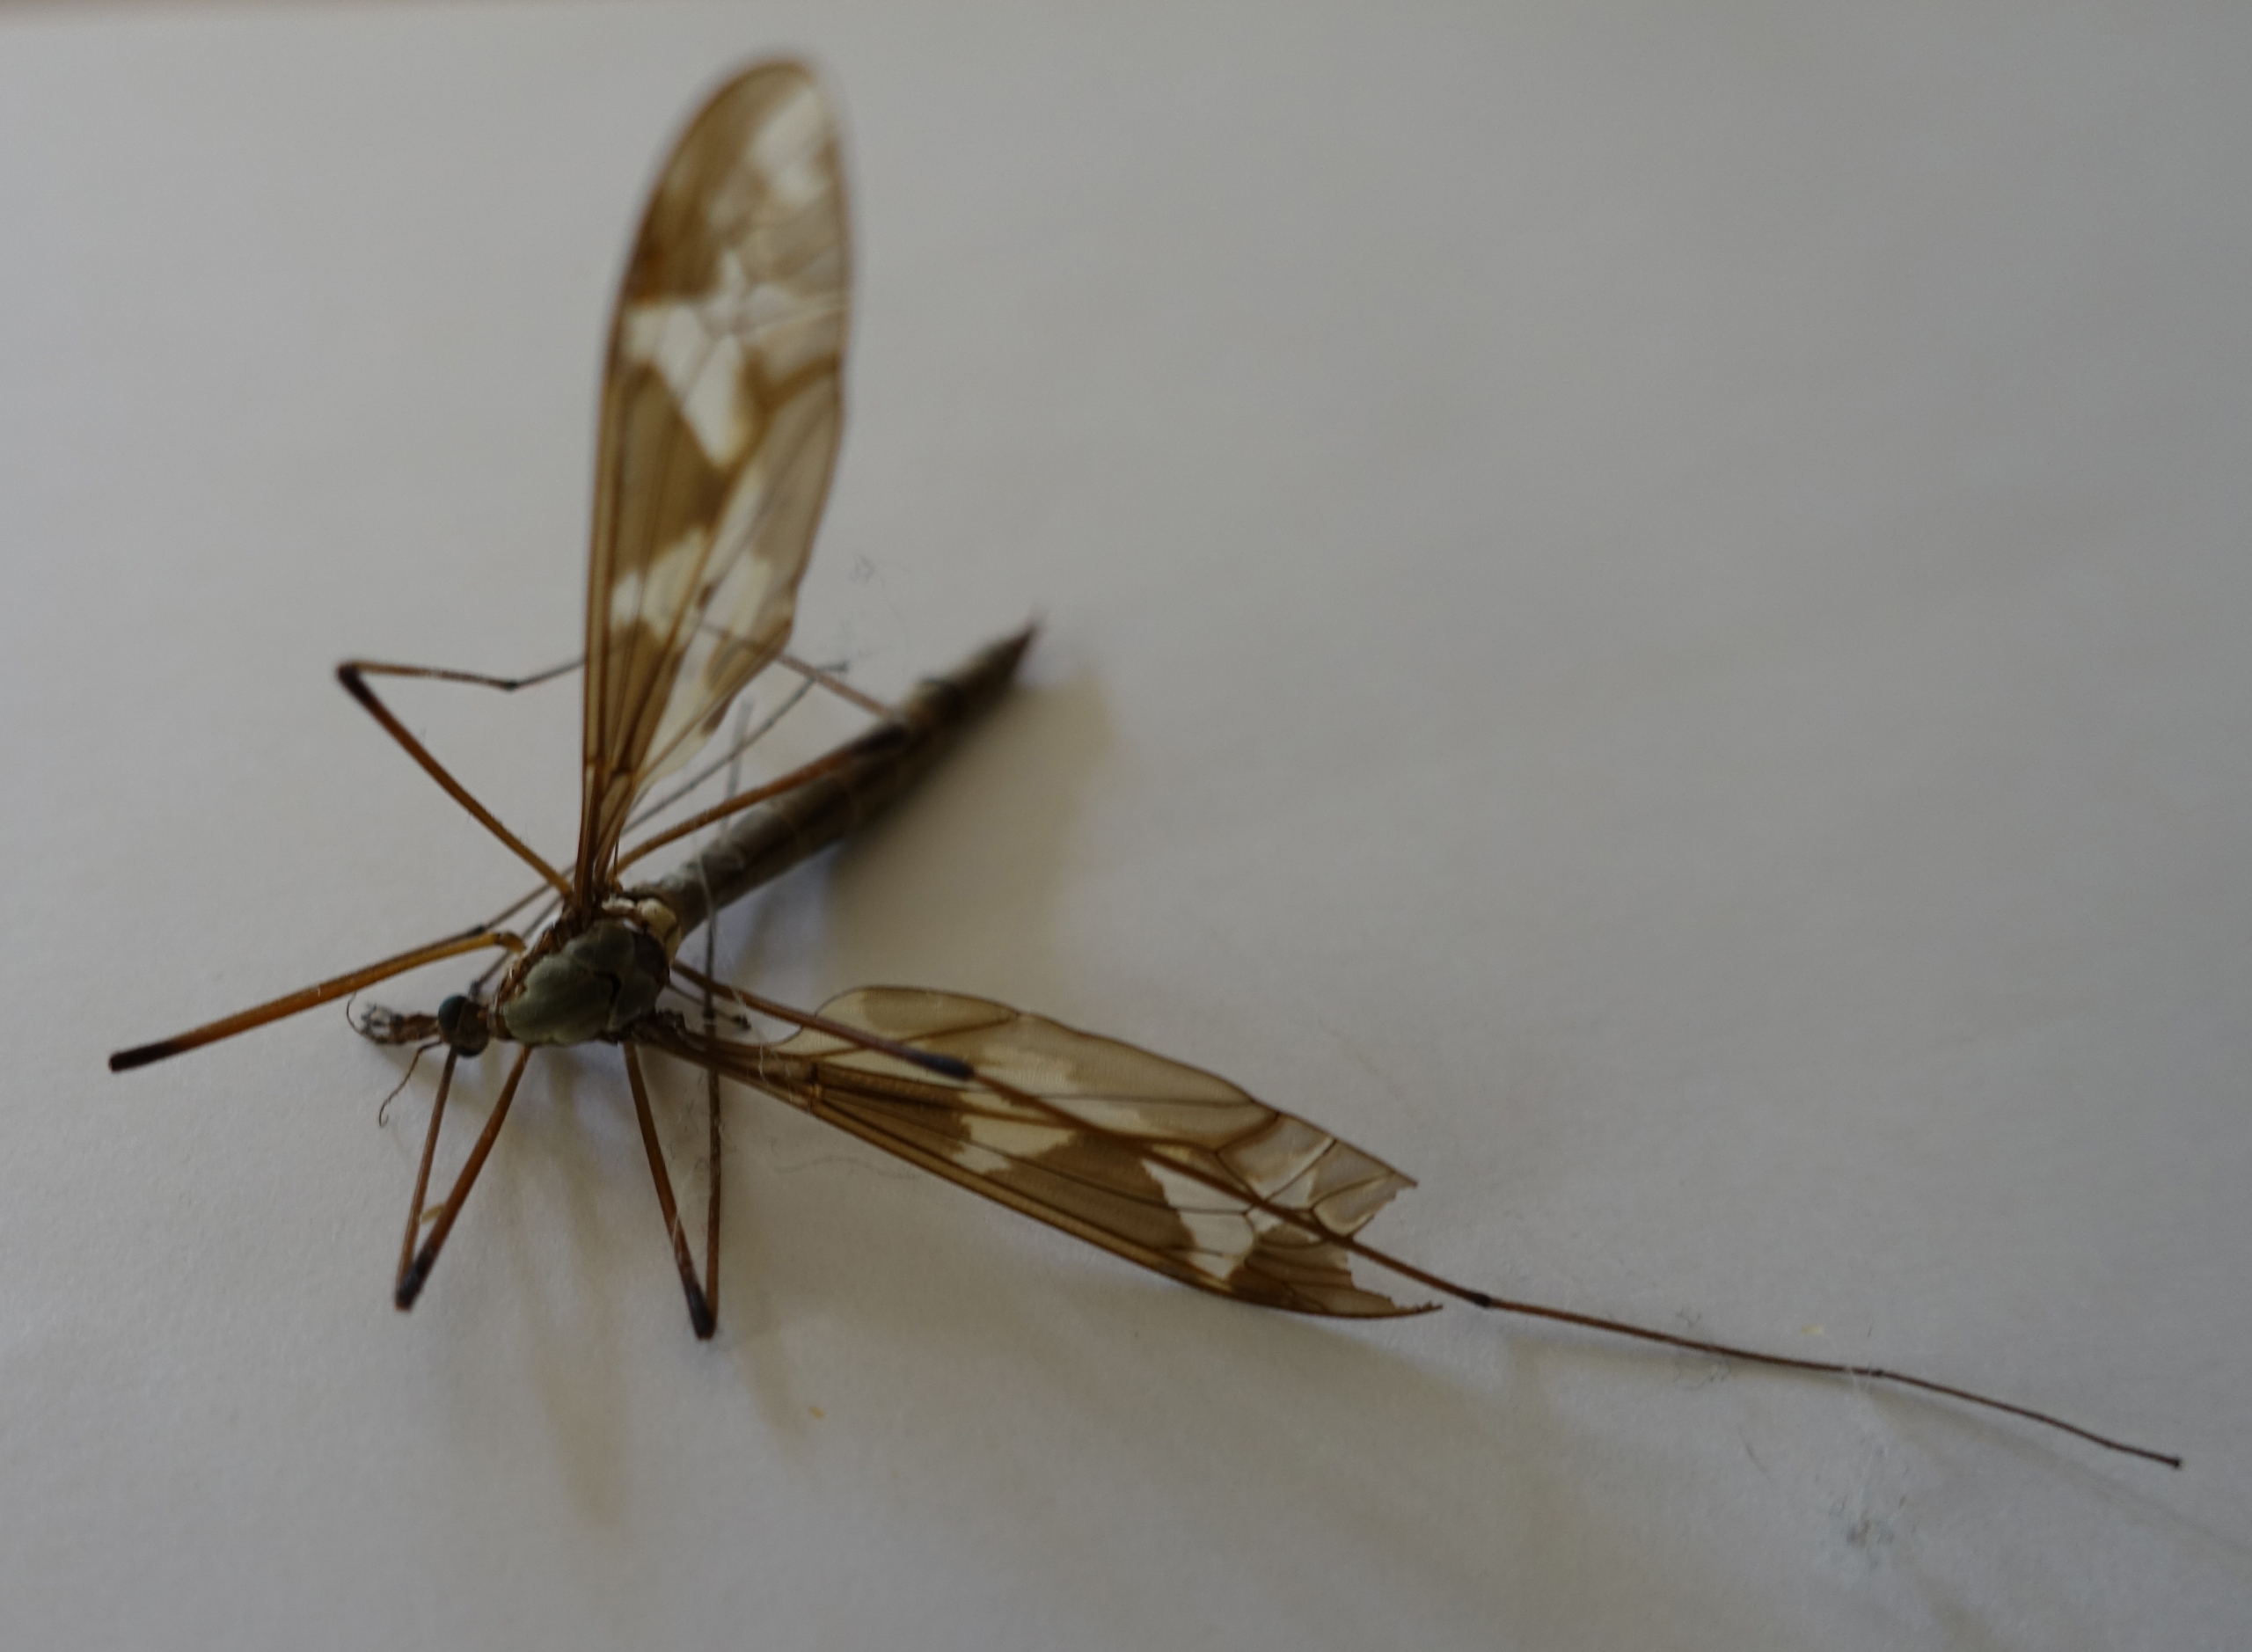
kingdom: Animalia
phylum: Arthropoda
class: Insecta
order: Diptera
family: Tipulidae
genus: Tipula
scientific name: Tipula maxima
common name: Kæmpestankelben
